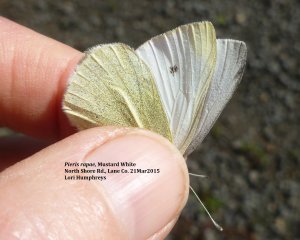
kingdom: Animalia
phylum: Arthropoda
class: Insecta
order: Lepidoptera
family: Pieridae
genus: Pieris
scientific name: Pieris rapae
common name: Cabbage White
